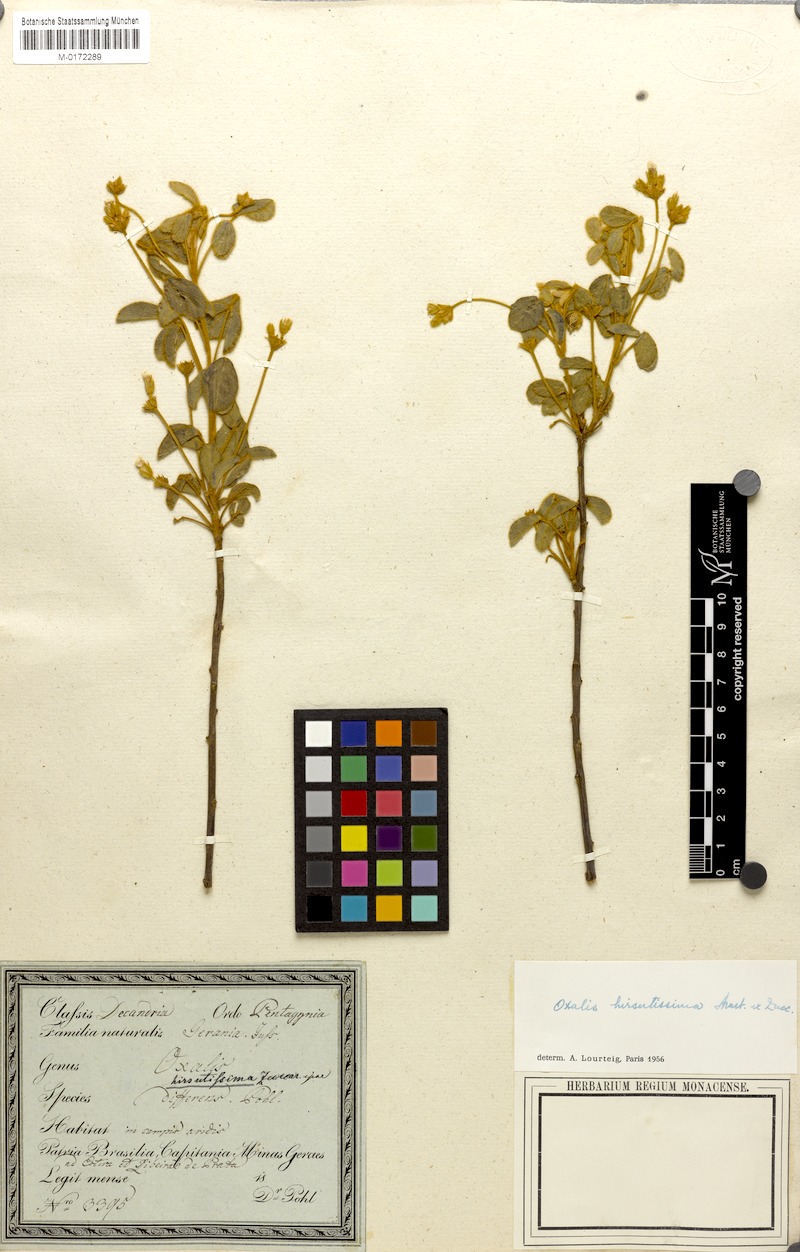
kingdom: Plantae
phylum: Tracheophyta
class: Magnoliopsida
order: Oxalidales
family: Oxalidaceae
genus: Oxalis
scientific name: Oxalis hirsutissima
